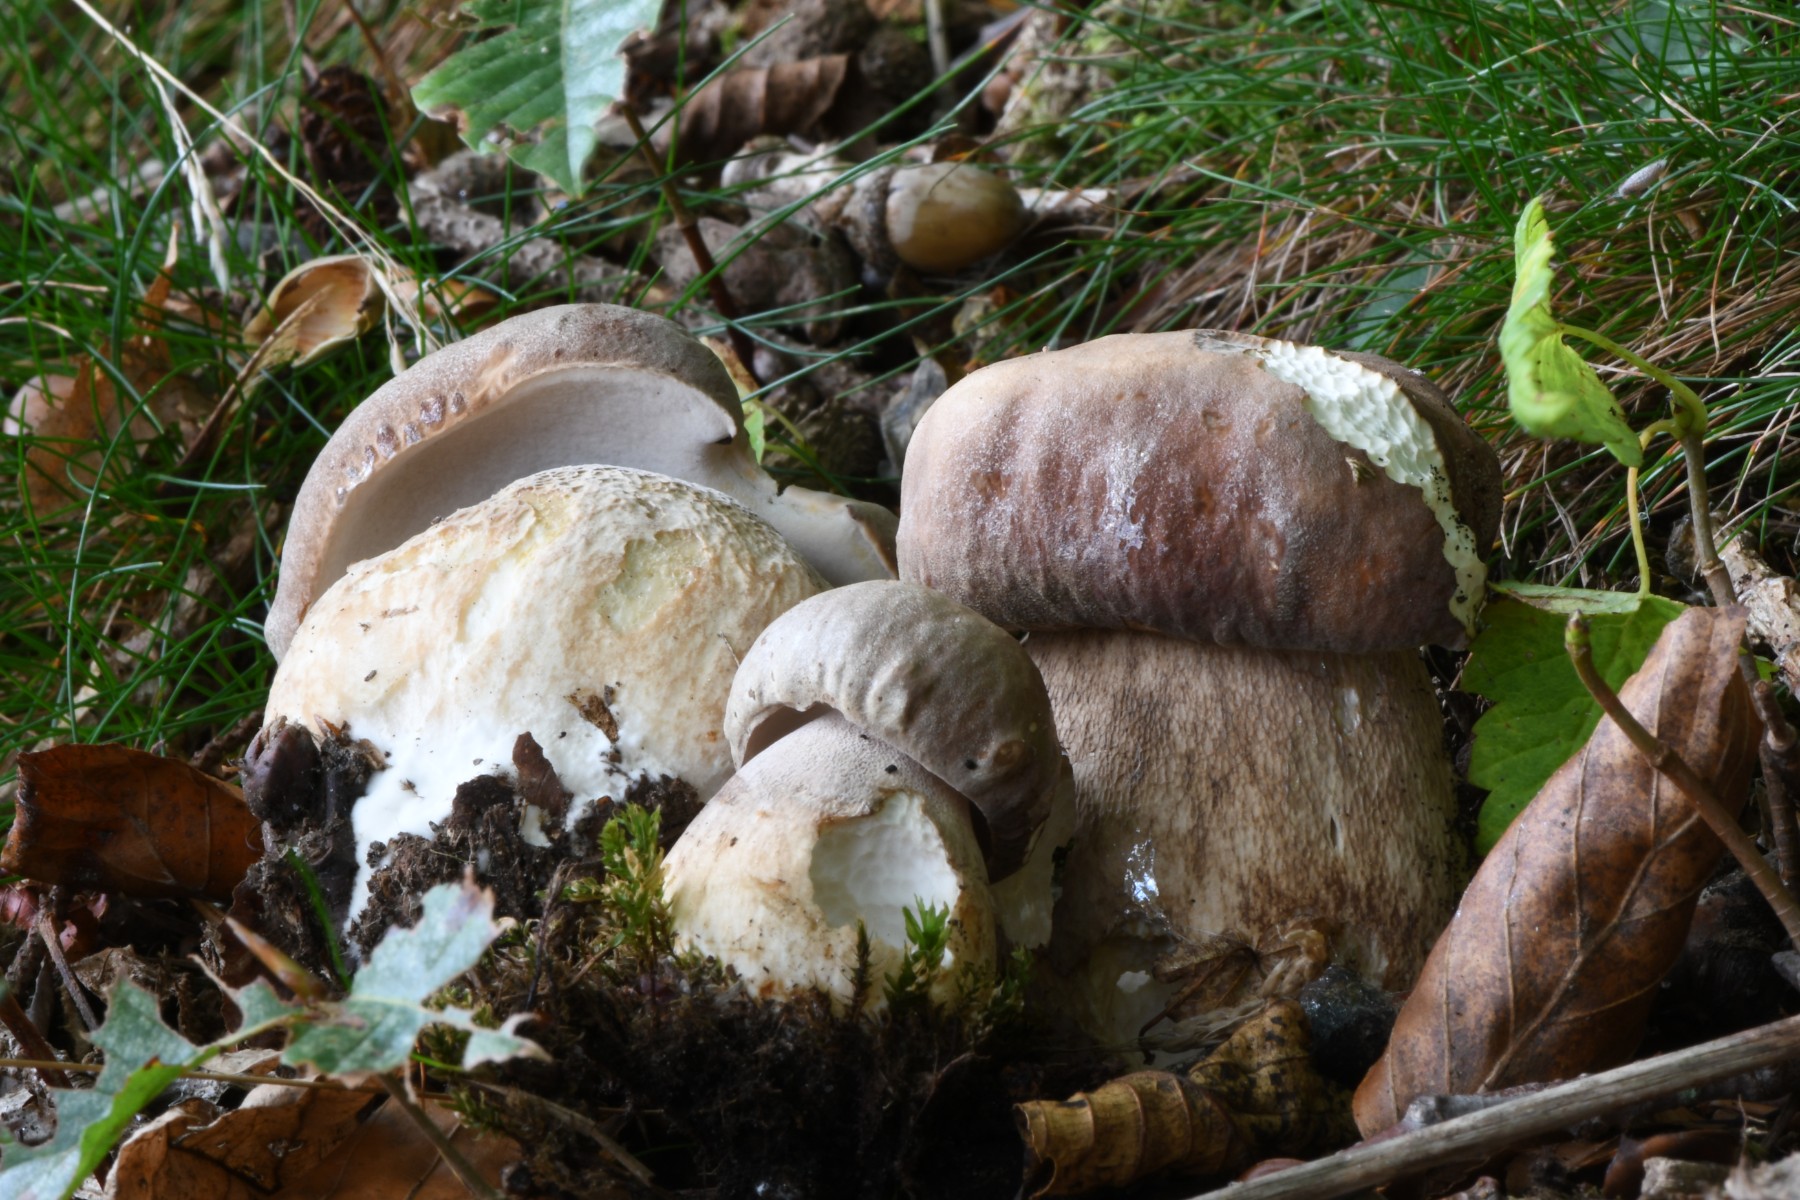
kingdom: Fungi
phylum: Basidiomycota
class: Agaricomycetes
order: Boletales
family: Boletaceae
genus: Boletus
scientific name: Boletus edulis
